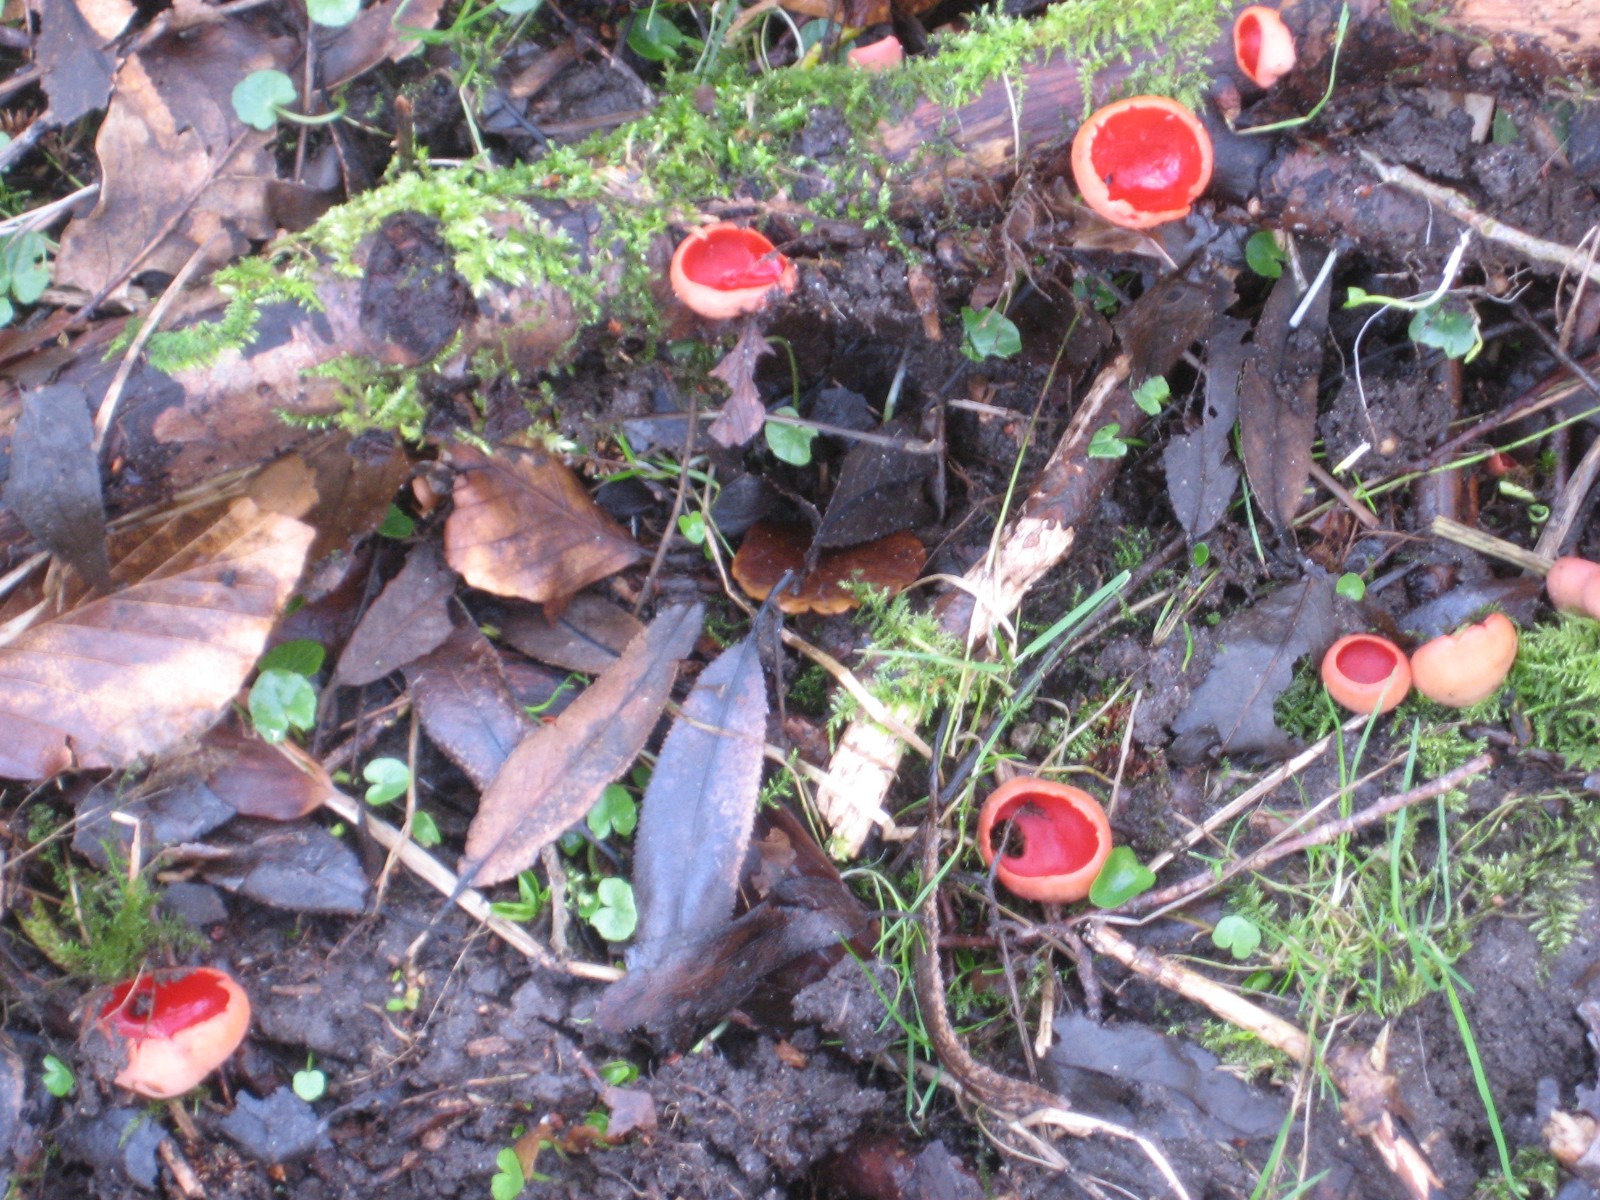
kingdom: Fungi
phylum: Ascomycota
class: Pezizomycetes
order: Pezizales
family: Sarcoscyphaceae
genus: Sarcoscypha
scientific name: Sarcoscypha austriaca
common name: krølhåret pragtbæger
